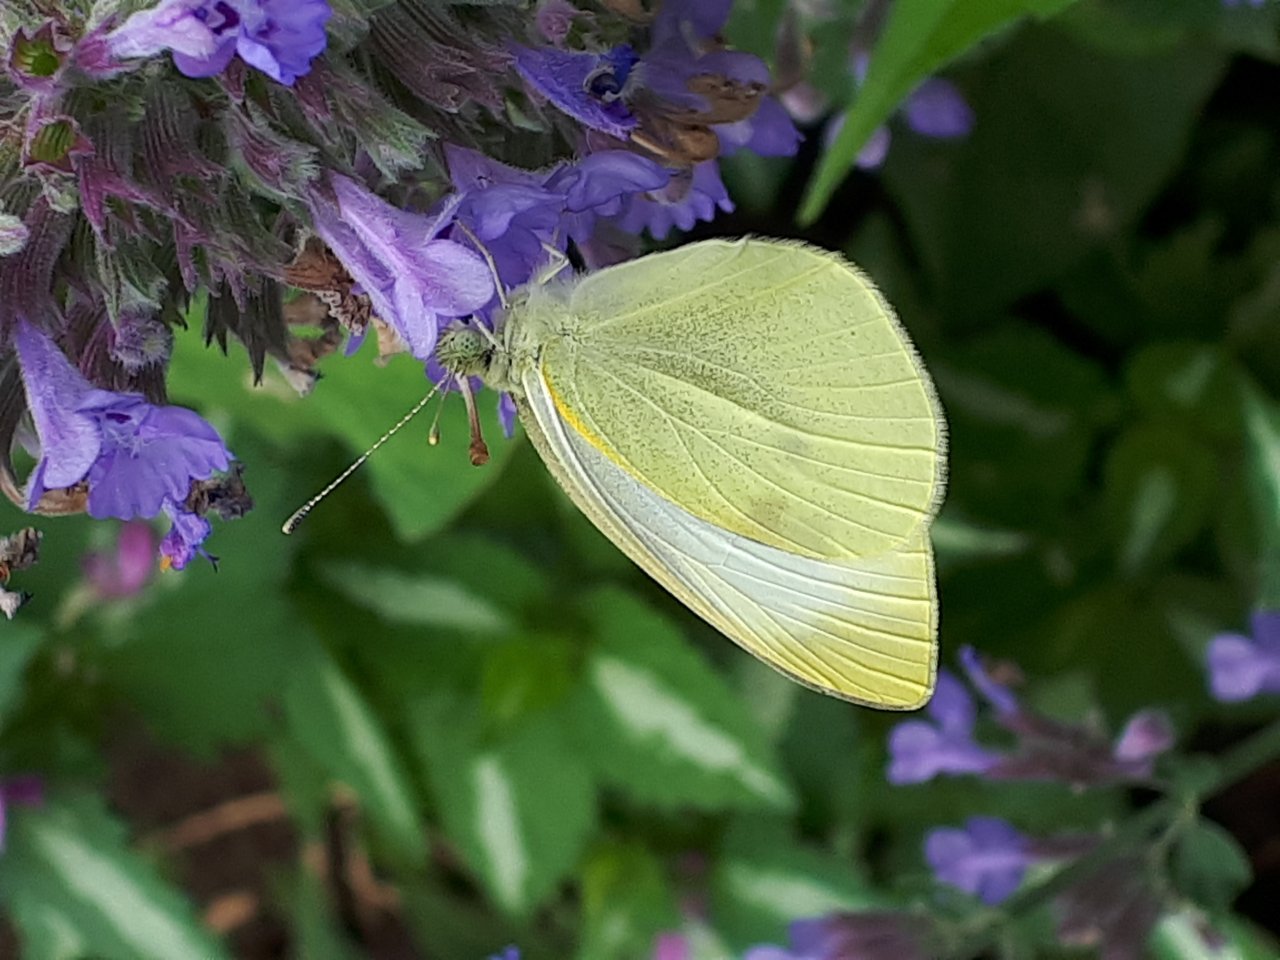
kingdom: Animalia
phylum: Arthropoda
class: Insecta
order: Lepidoptera
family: Pieridae
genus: Pieris
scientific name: Pieris rapae
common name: Cabbage White
